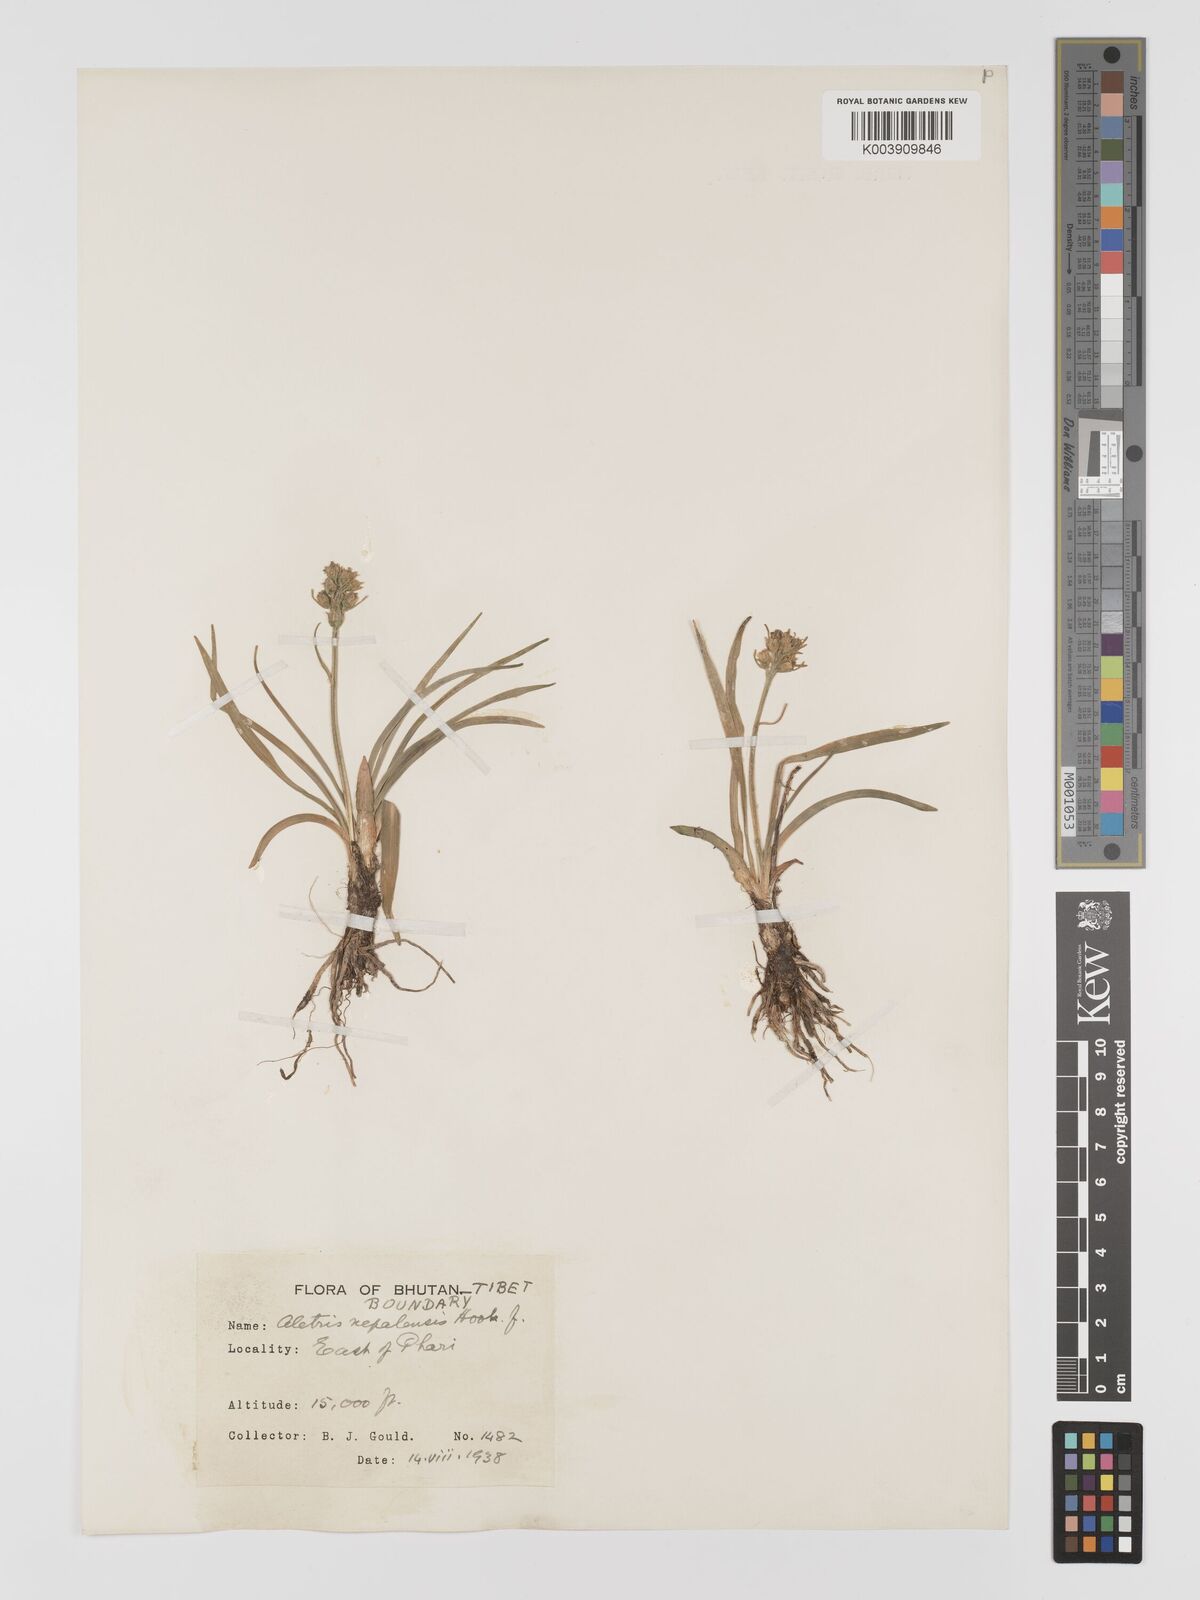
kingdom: Plantae
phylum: Tracheophyta
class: Liliopsida
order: Dioscoreales
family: Nartheciaceae
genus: Aletris
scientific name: Aletris pauciflora
